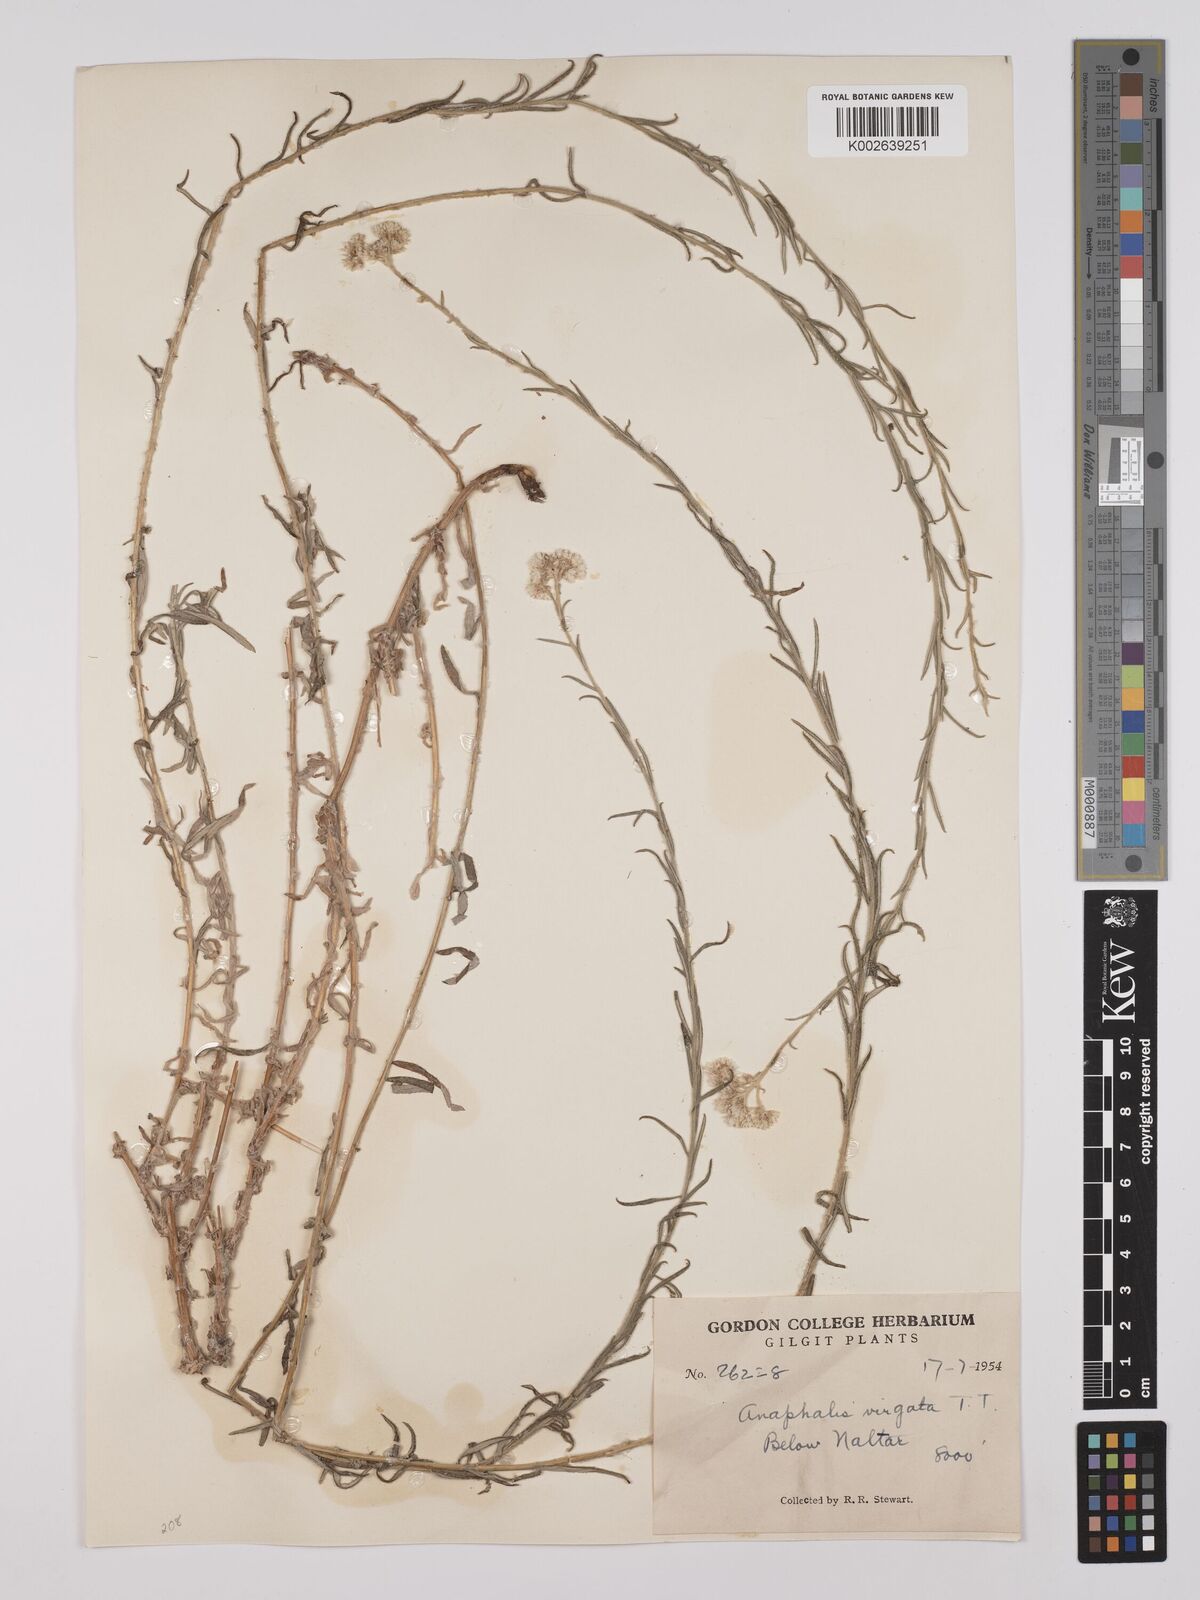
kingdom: Plantae
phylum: Tracheophyta
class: Magnoliopsida
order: Asterales
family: Asteraceae
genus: Anaphalis
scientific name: Anaphalis
